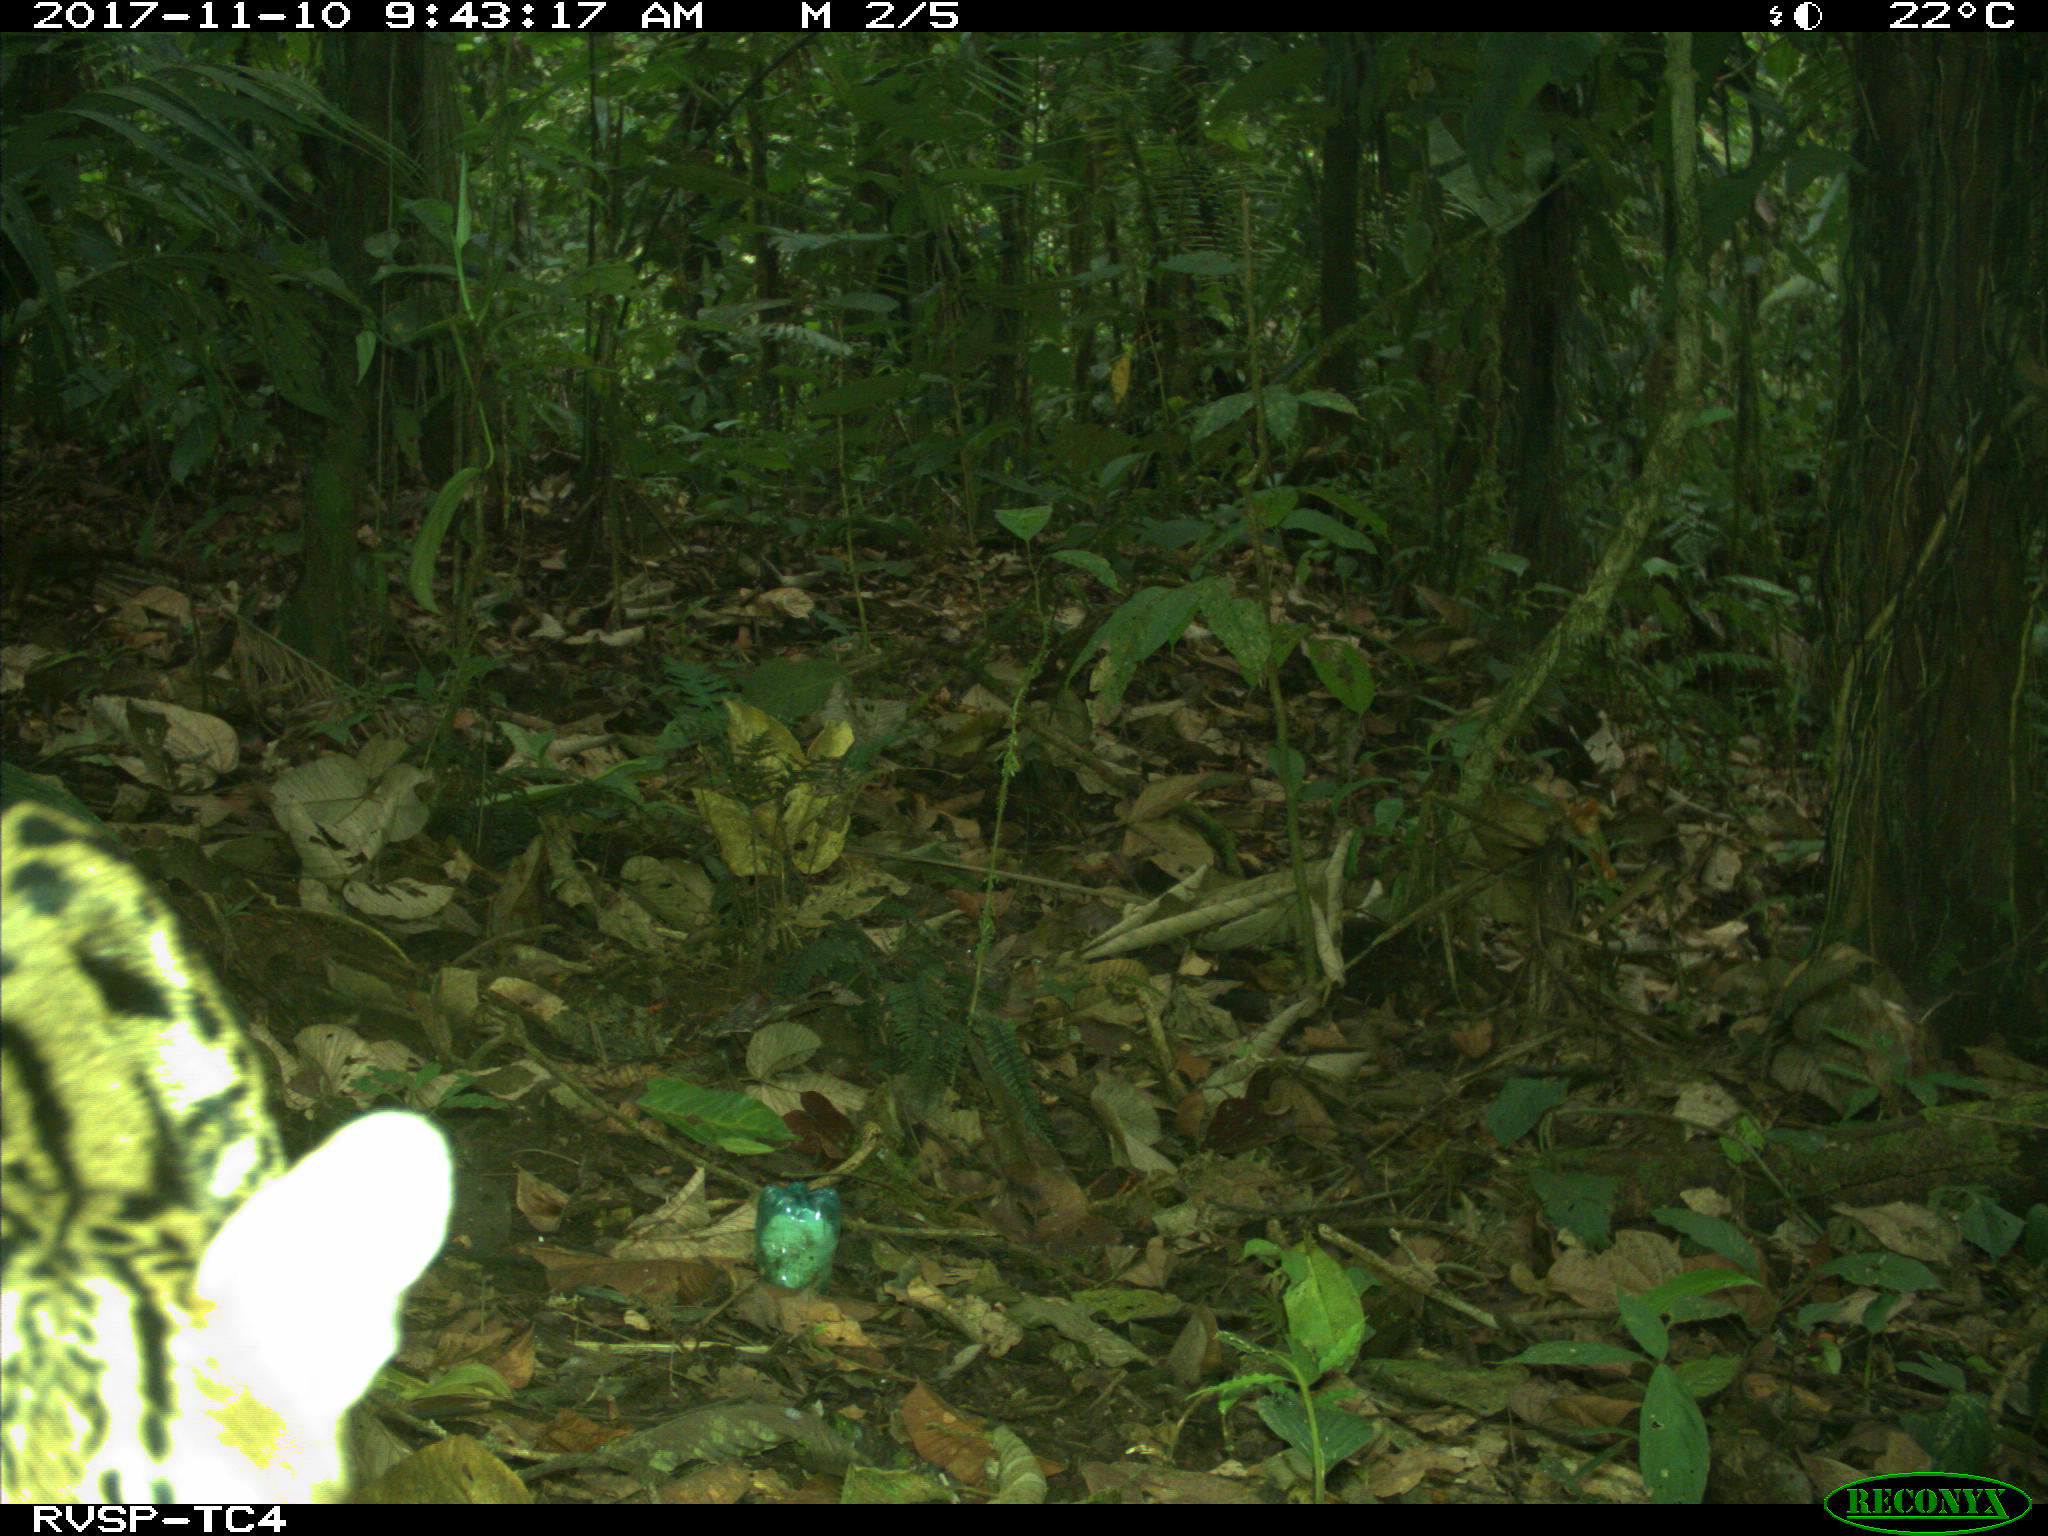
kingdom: Animalia
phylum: Chordata
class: Mammalia
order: Carnivora
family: Felidae
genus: Leopardus
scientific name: Leopardus pardalis
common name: Ocelot
